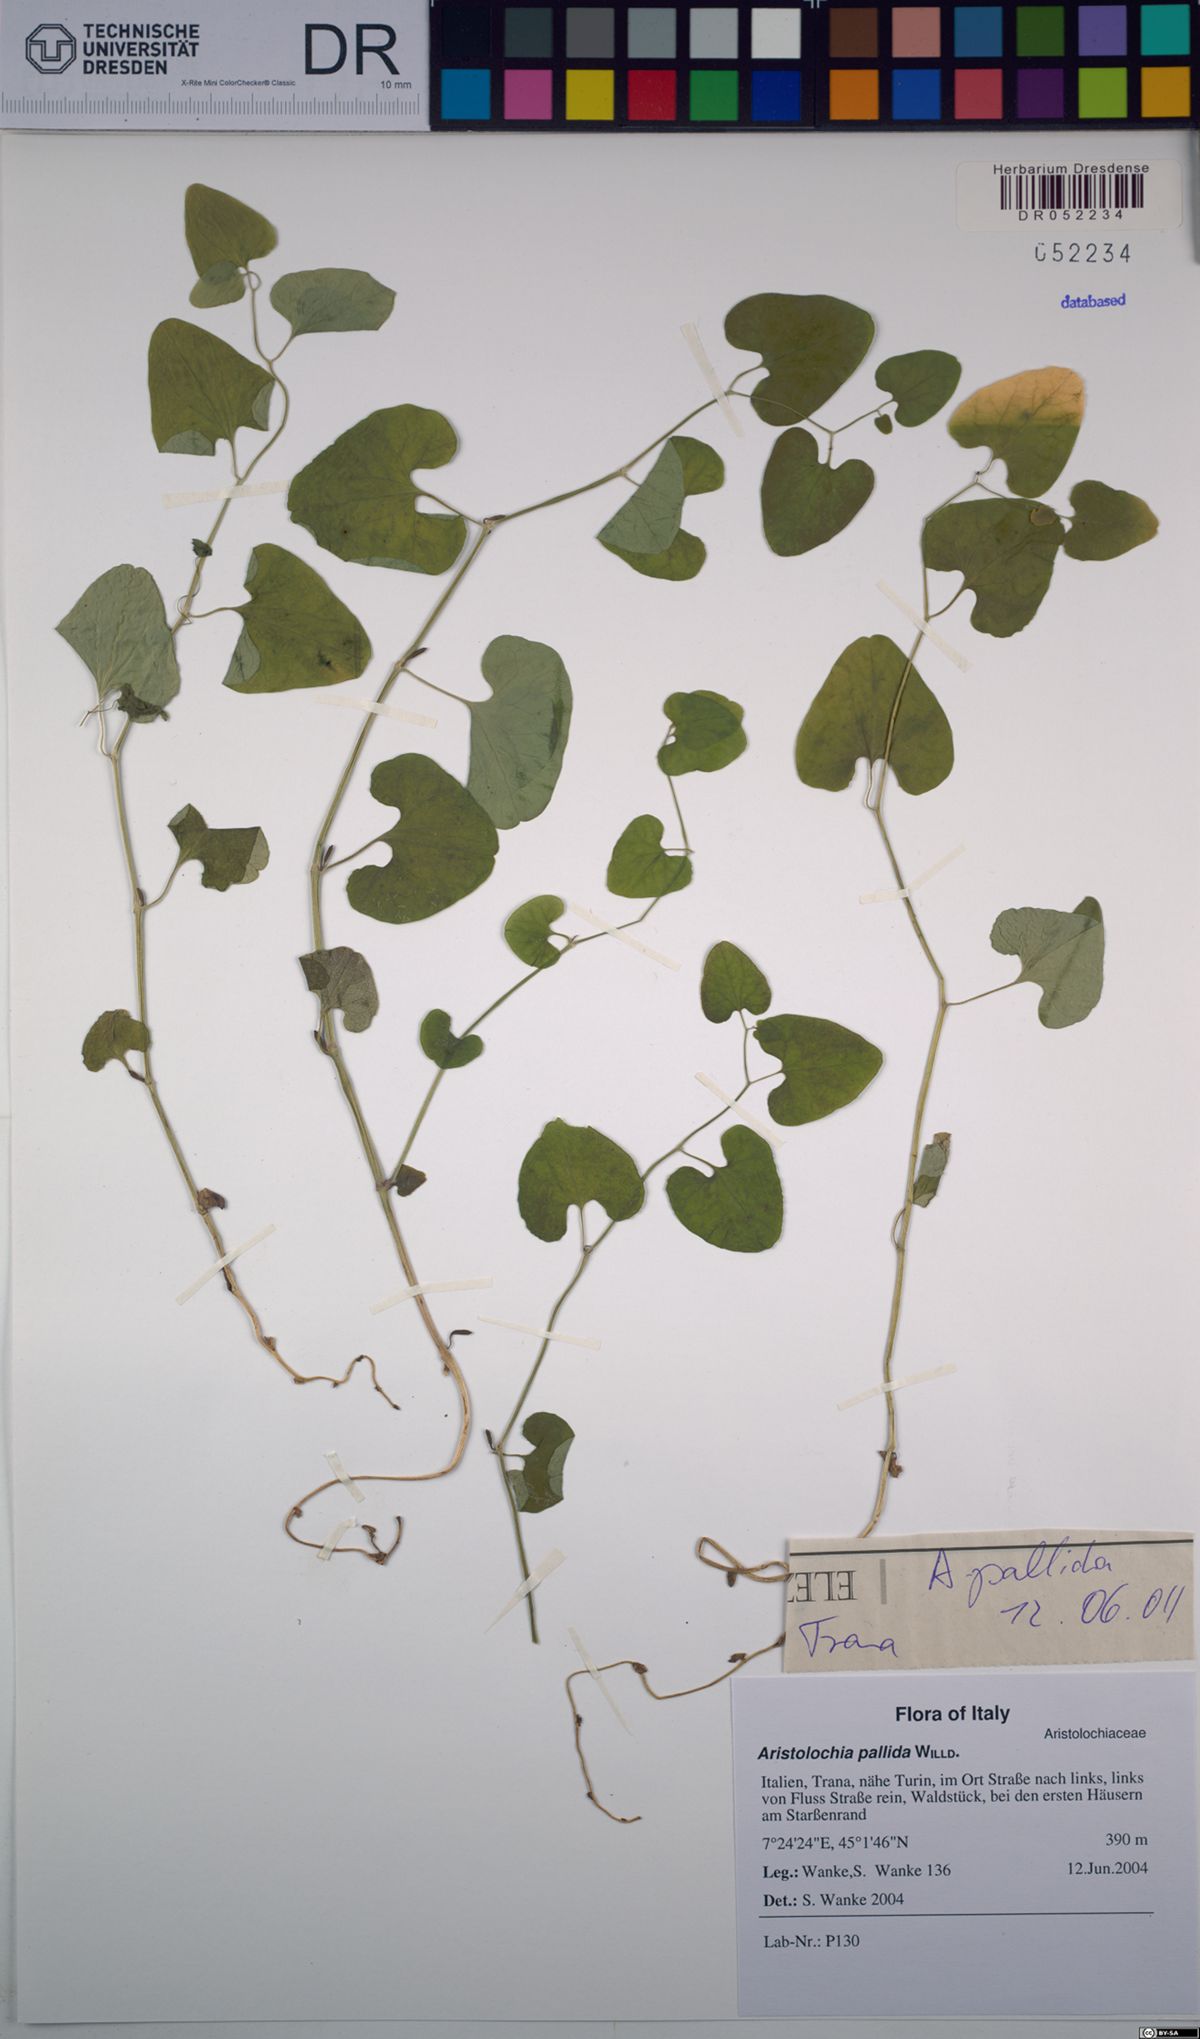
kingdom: Plantae
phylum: Tracheophyta
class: Magnoliopsida
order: Piperales
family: Aristolochiaceae
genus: Aristolochia
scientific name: Aristolochia pallida
